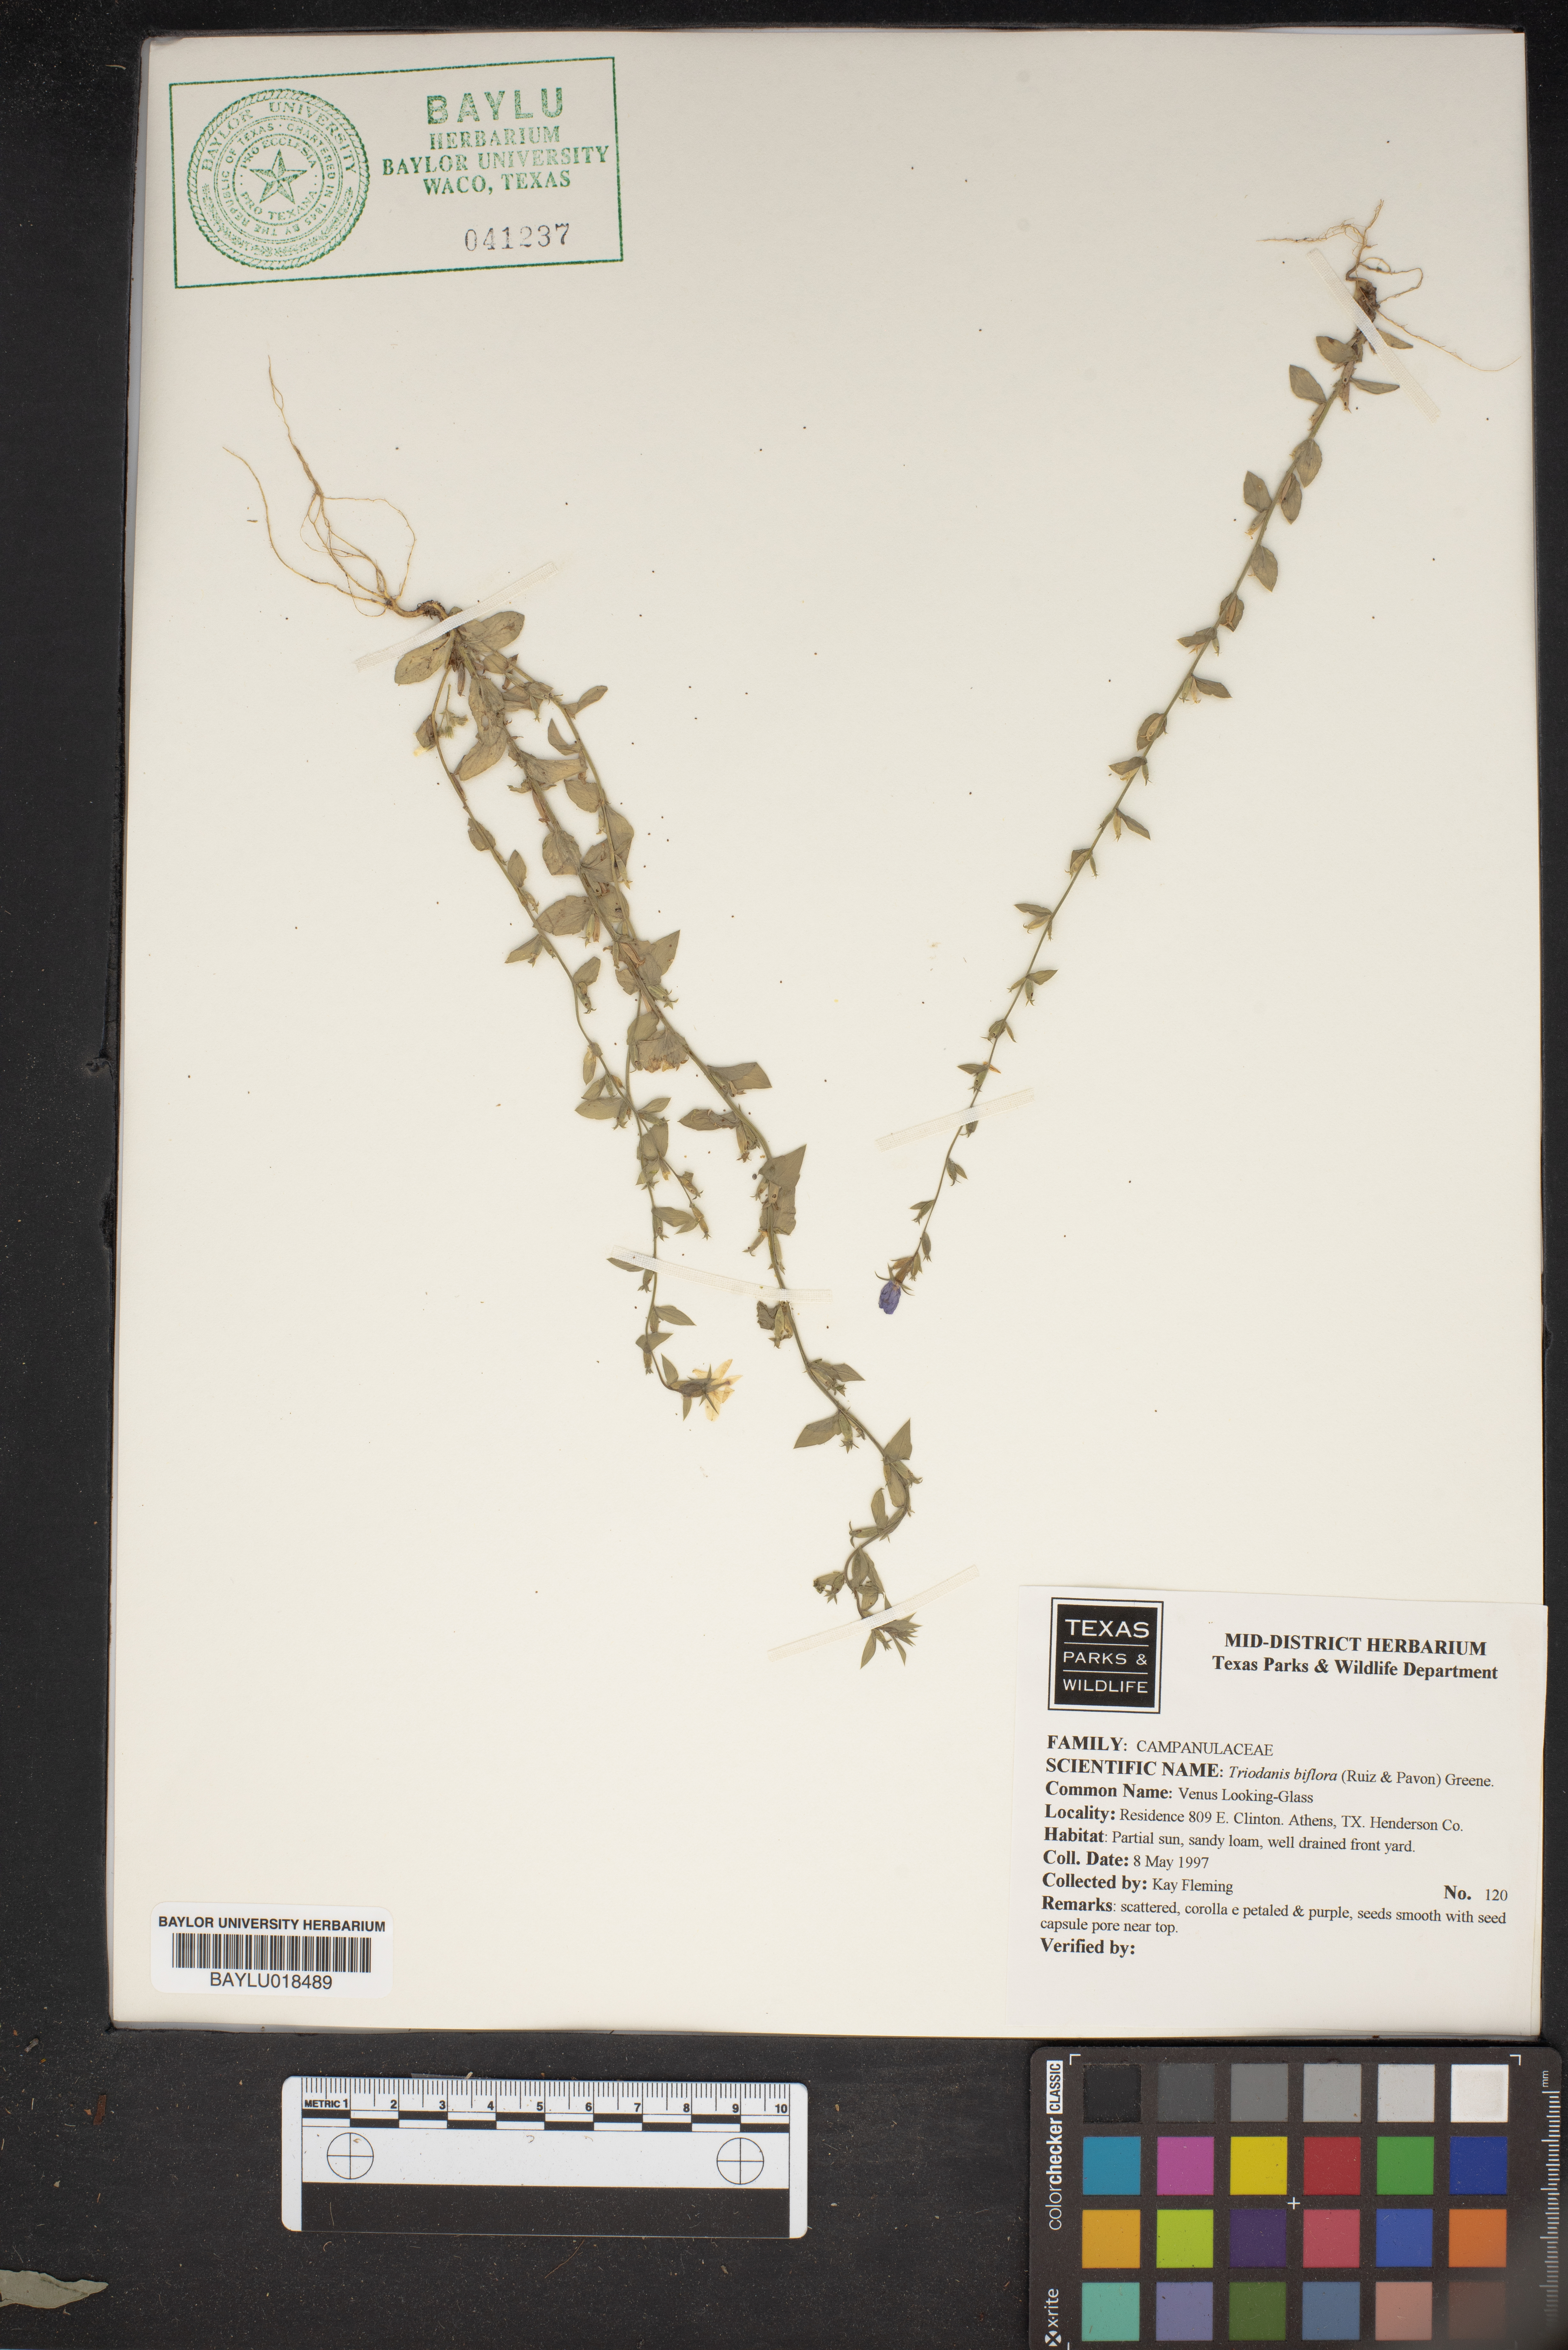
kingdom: Plantae
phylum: Tracheophyta
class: Magnoliopsida
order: Asterales
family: Campanulaceae
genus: Triodanis
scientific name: Triodanis perfoliata
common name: Clasping venus' looking-glass
